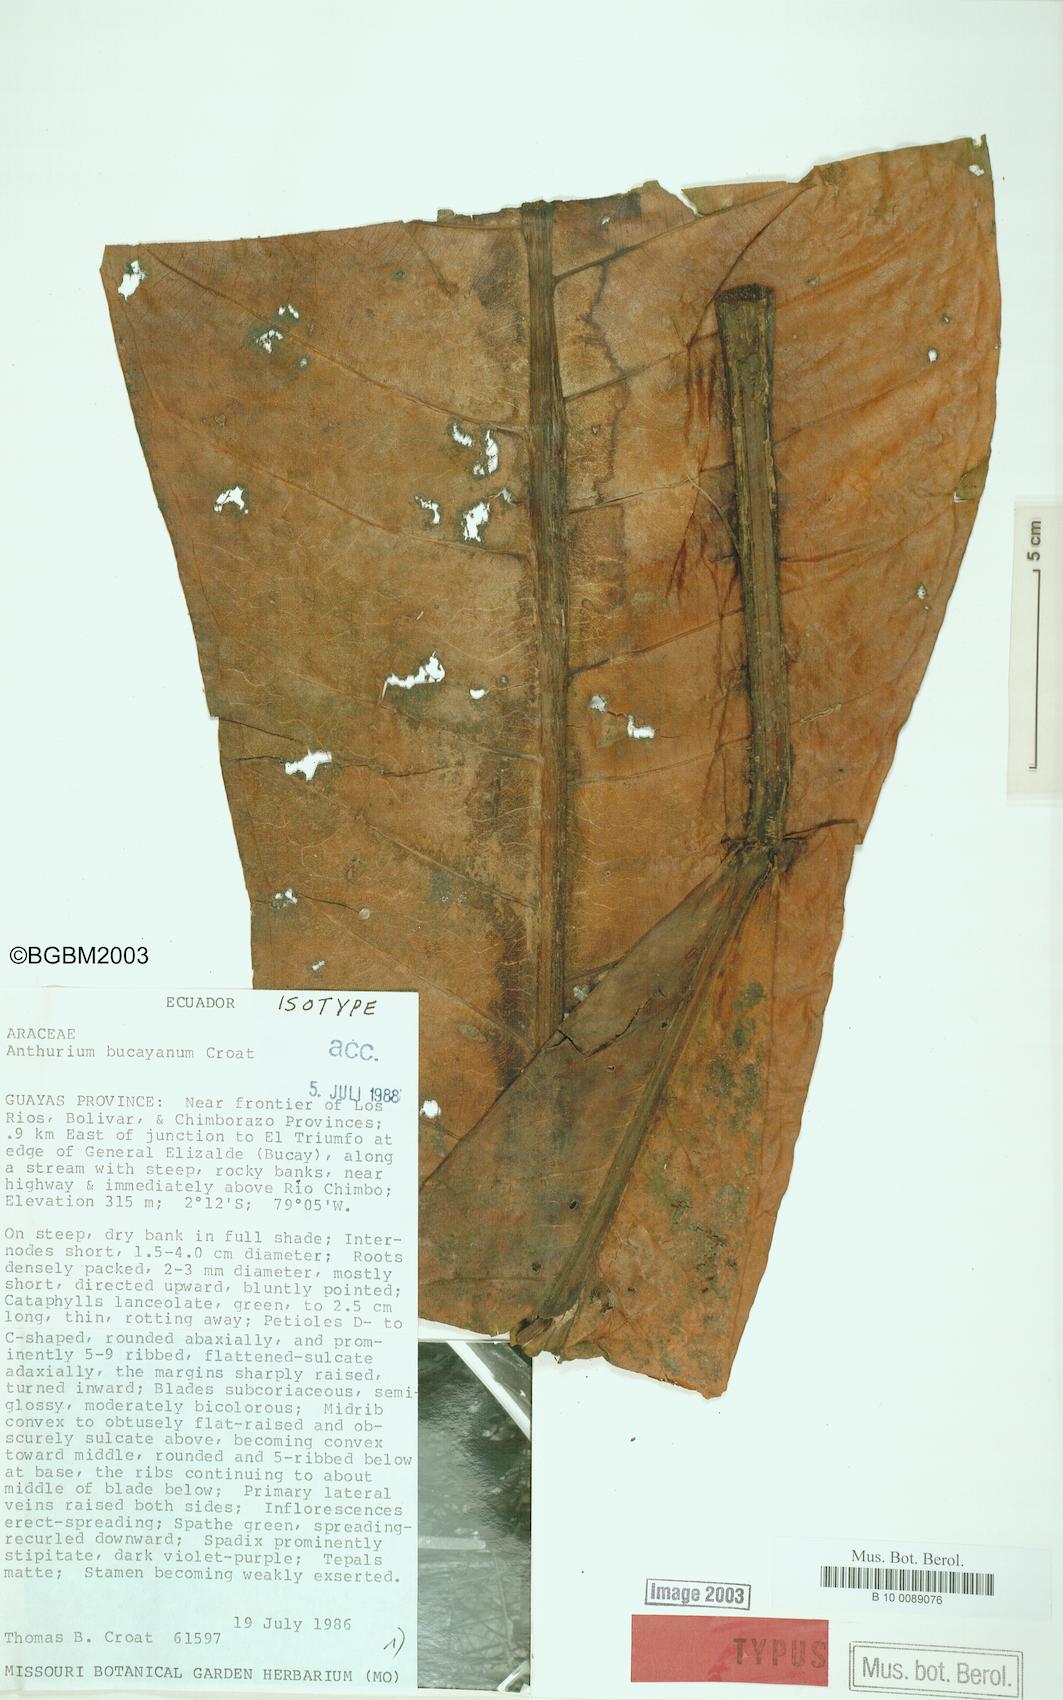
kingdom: Plantae
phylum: Tracheophyta
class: Liliopsida
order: Alismatales
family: Araceae
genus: Anthurium
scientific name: Anthurium bucayanum
